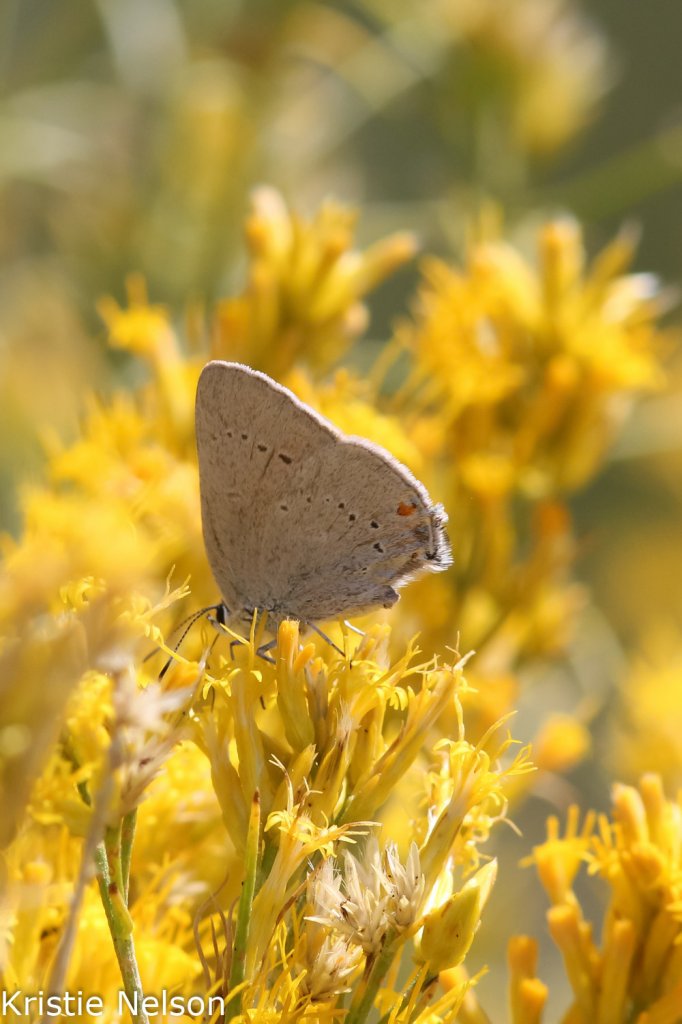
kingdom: Animalia
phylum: Arthropoda
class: Insecta
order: Lepidoptera
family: Lycaenidae
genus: Strymon
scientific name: Strymon sylvinus
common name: Sylvan Hairstreak
